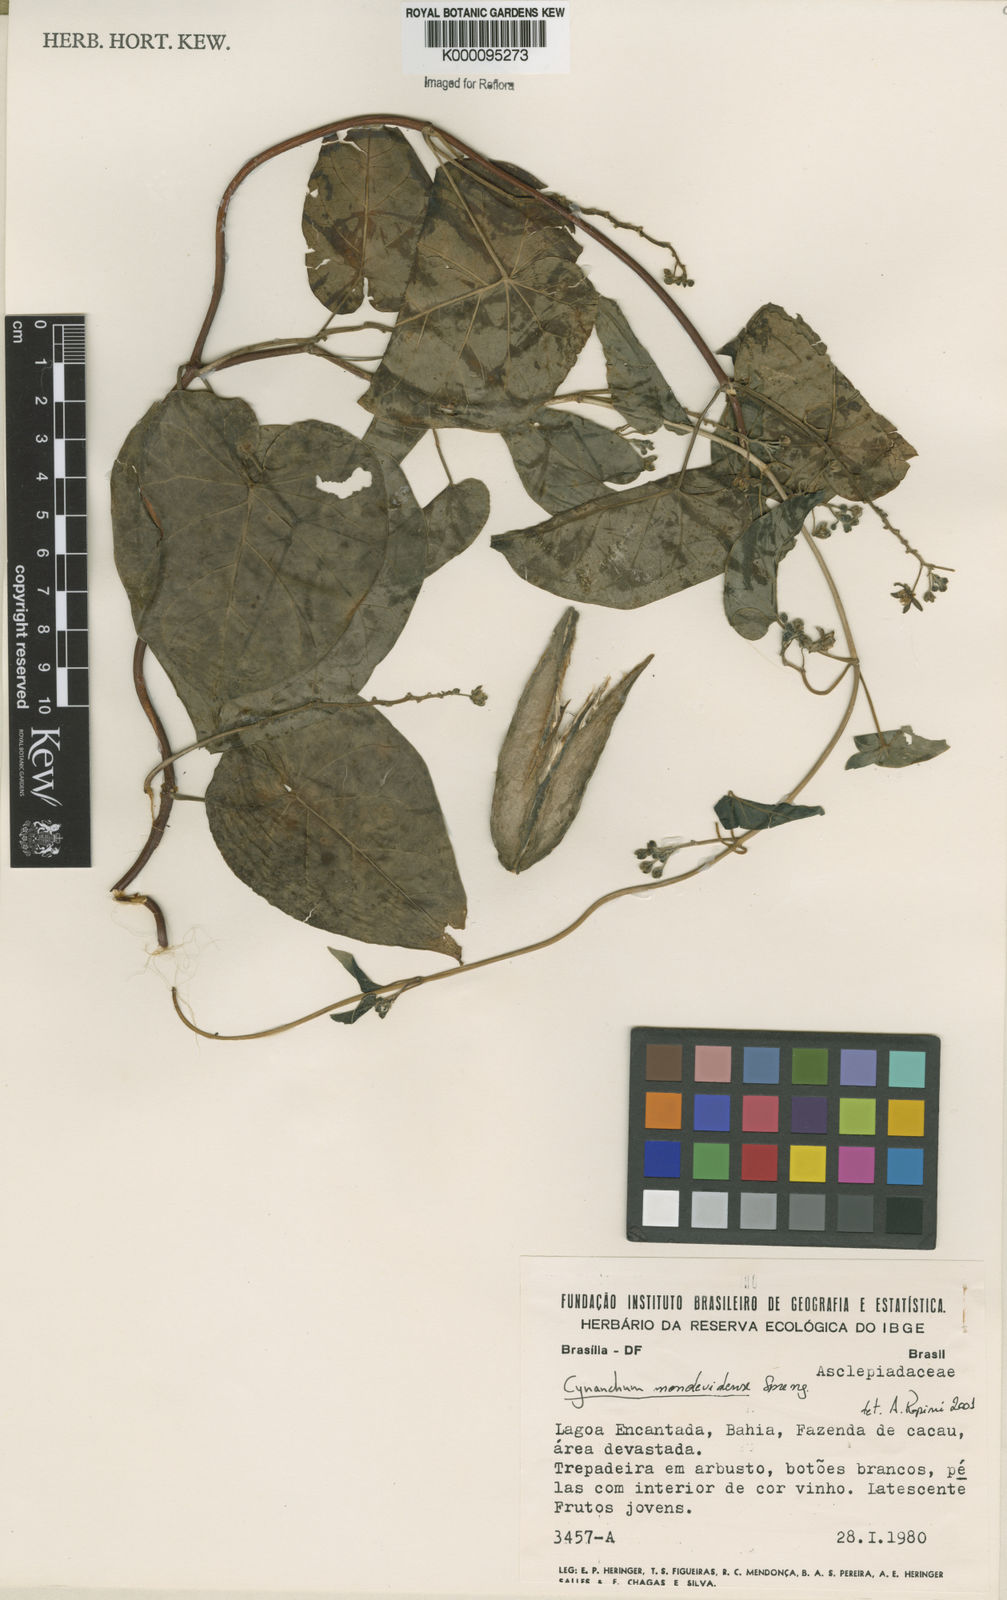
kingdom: Plantae
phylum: Tracheophyta
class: Magnoliopsida
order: Gentianales
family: Apocynaceae
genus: Cynanchum
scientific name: Cynanchum montevidense
